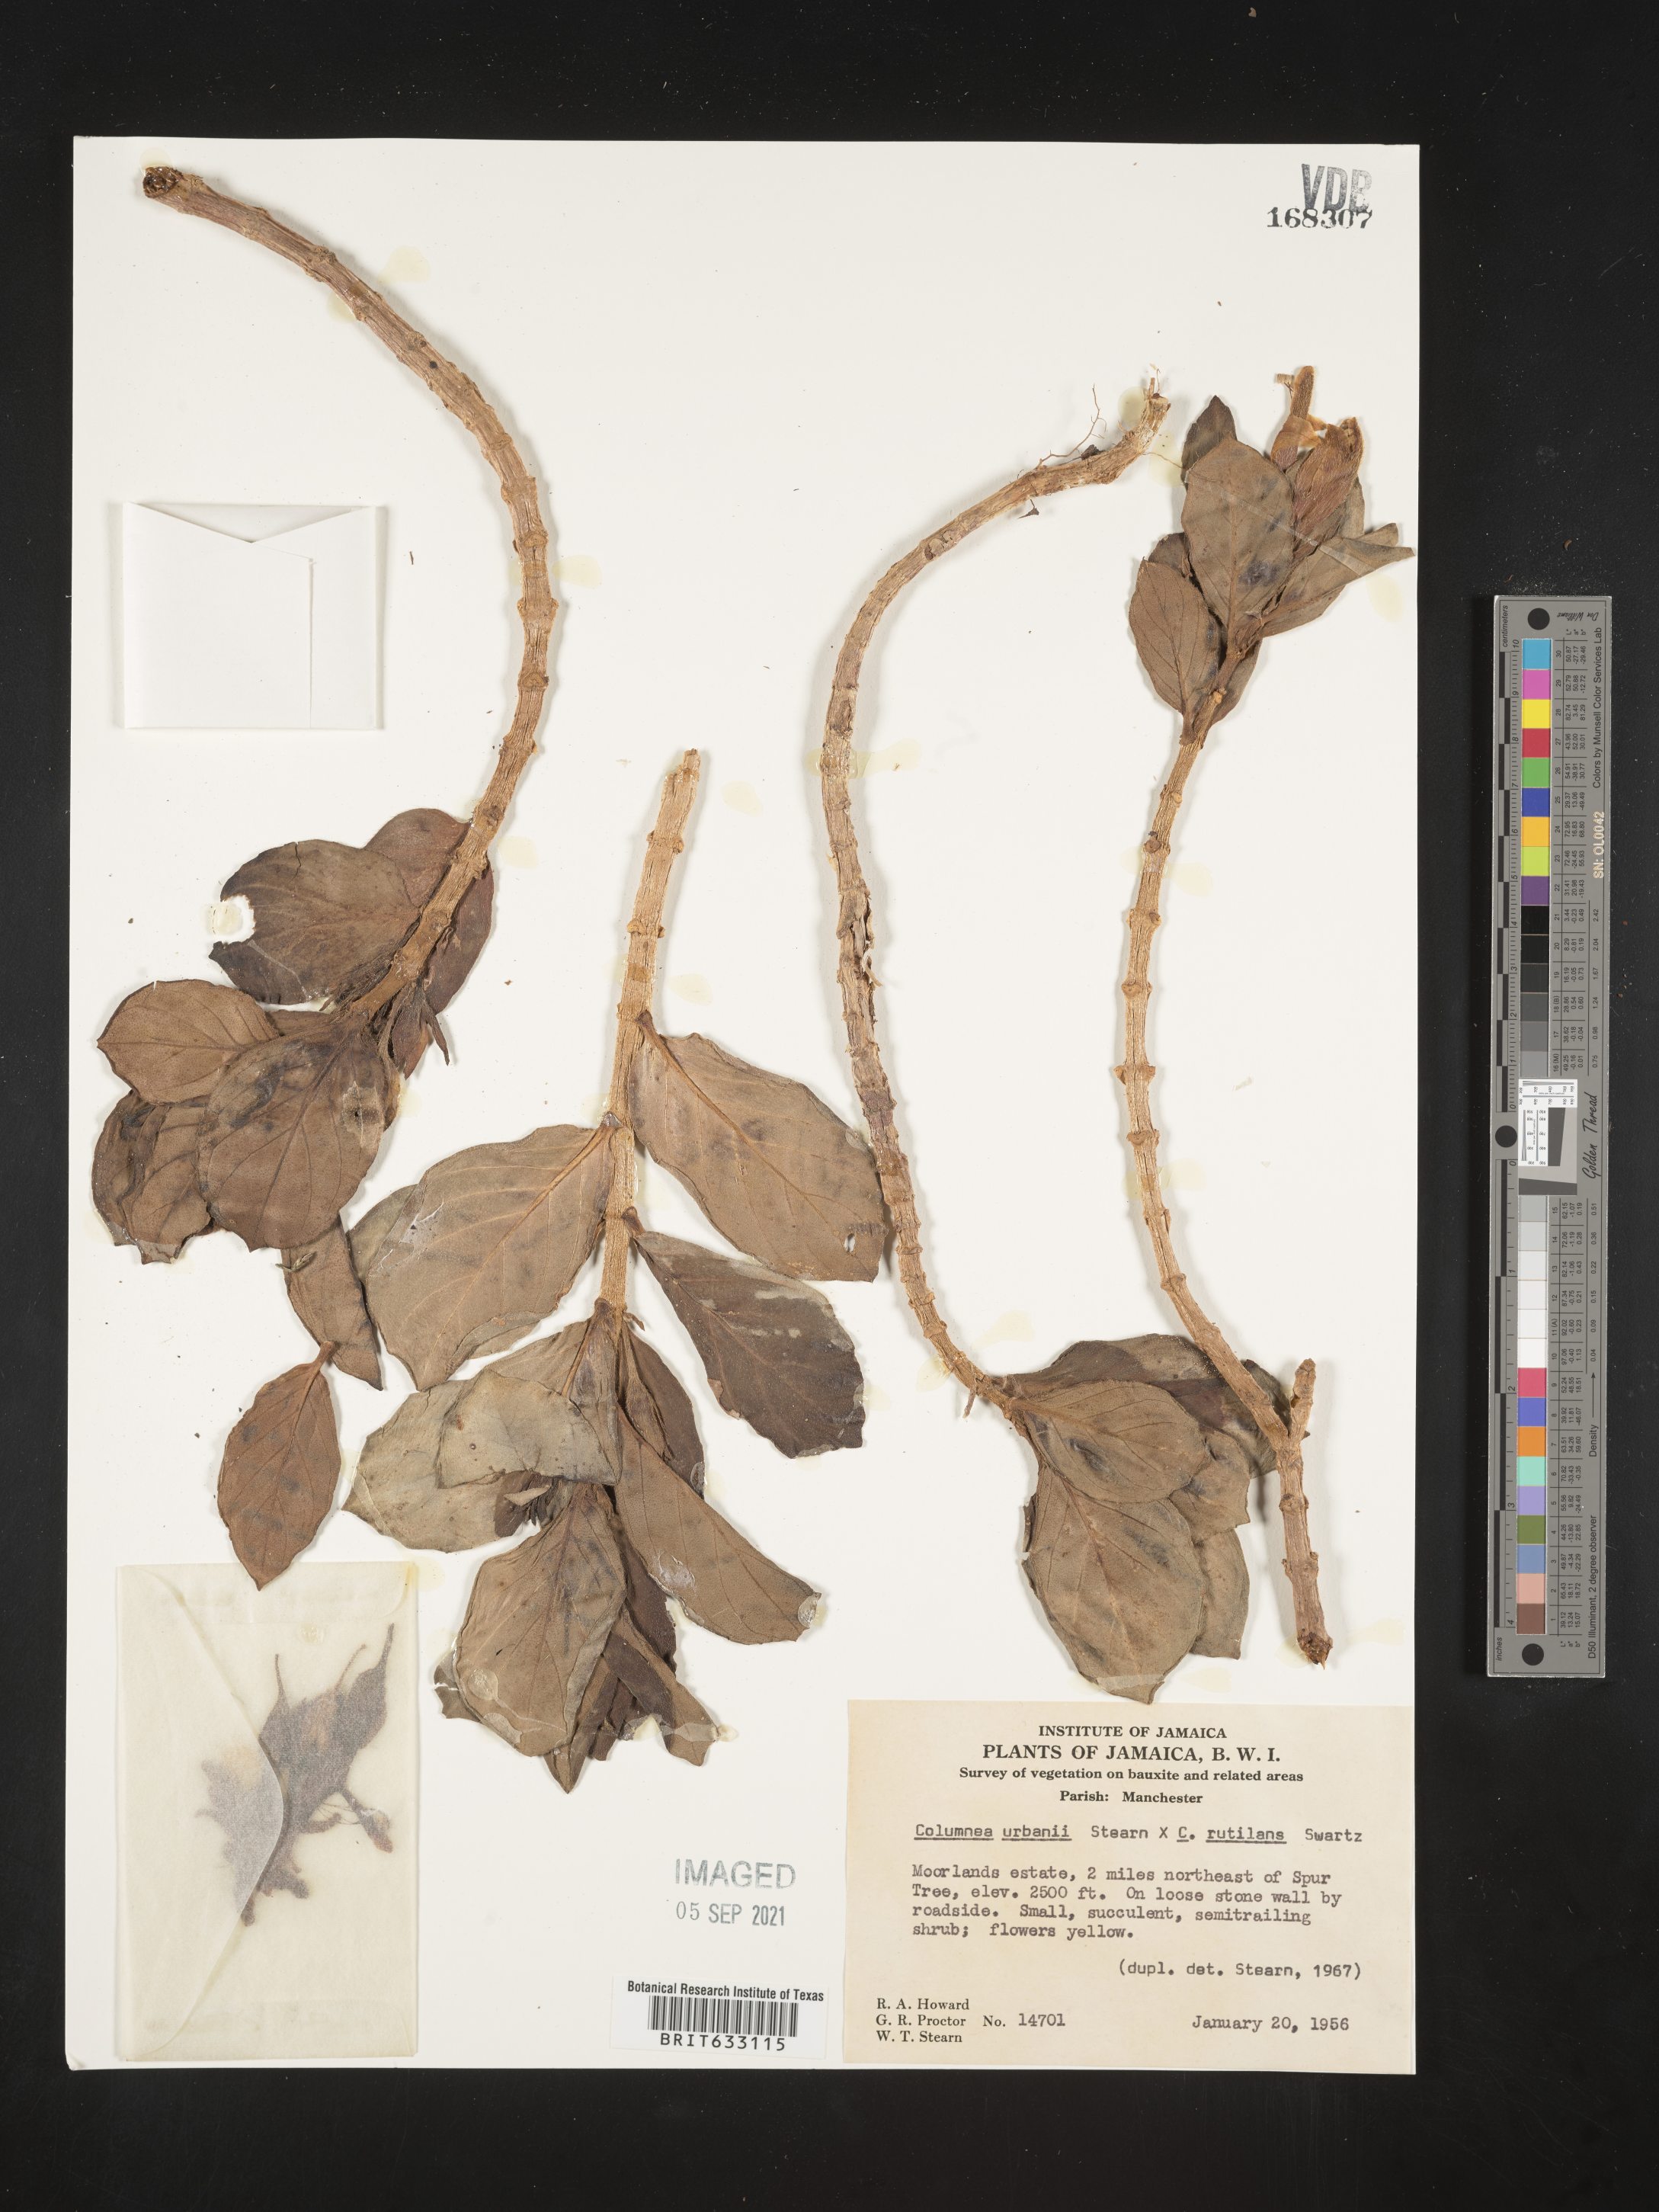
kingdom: Plantae
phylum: Tracheophyta
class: Magnoliopsida
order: Lamiales
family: Gesneriaceae
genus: Columnea
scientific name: Columnea
